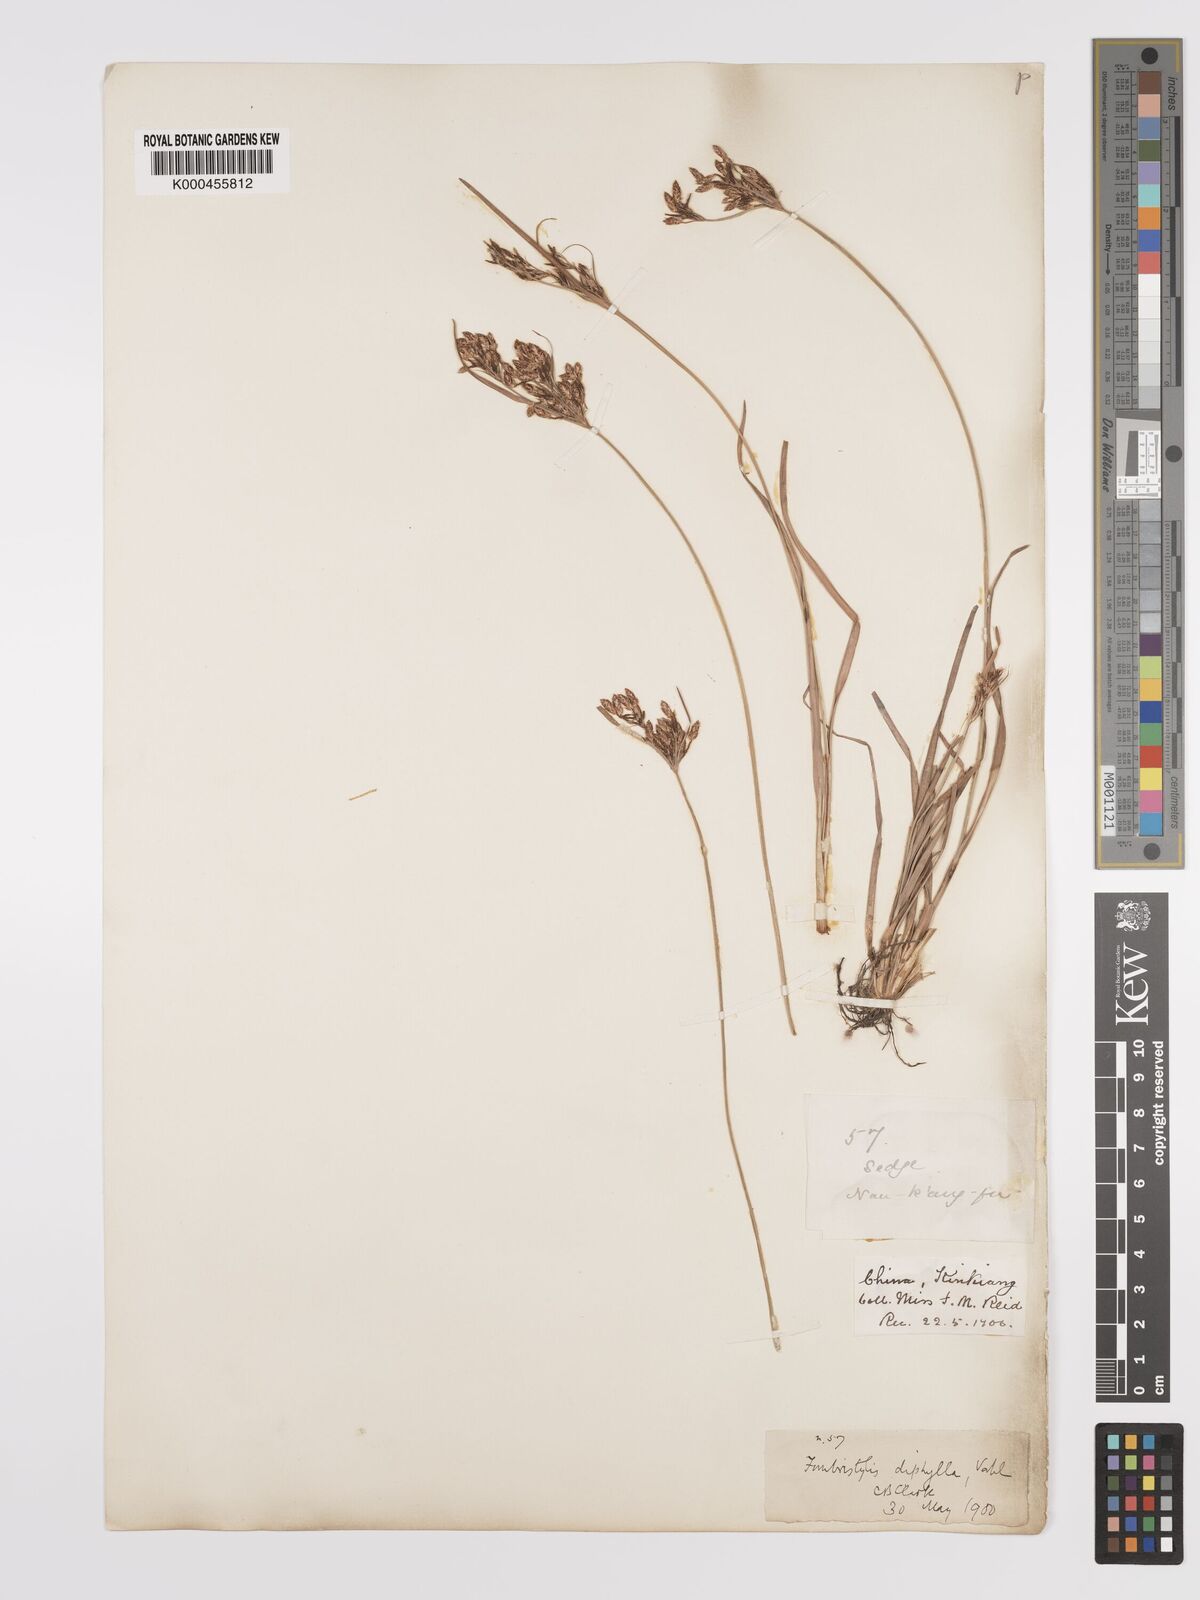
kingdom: Plantae
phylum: Tracheophyta
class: Liliopsida
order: Poales
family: Cyperaceae
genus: Fimbristylis
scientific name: Fimbristylis dichotoma
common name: Forked fimbry
